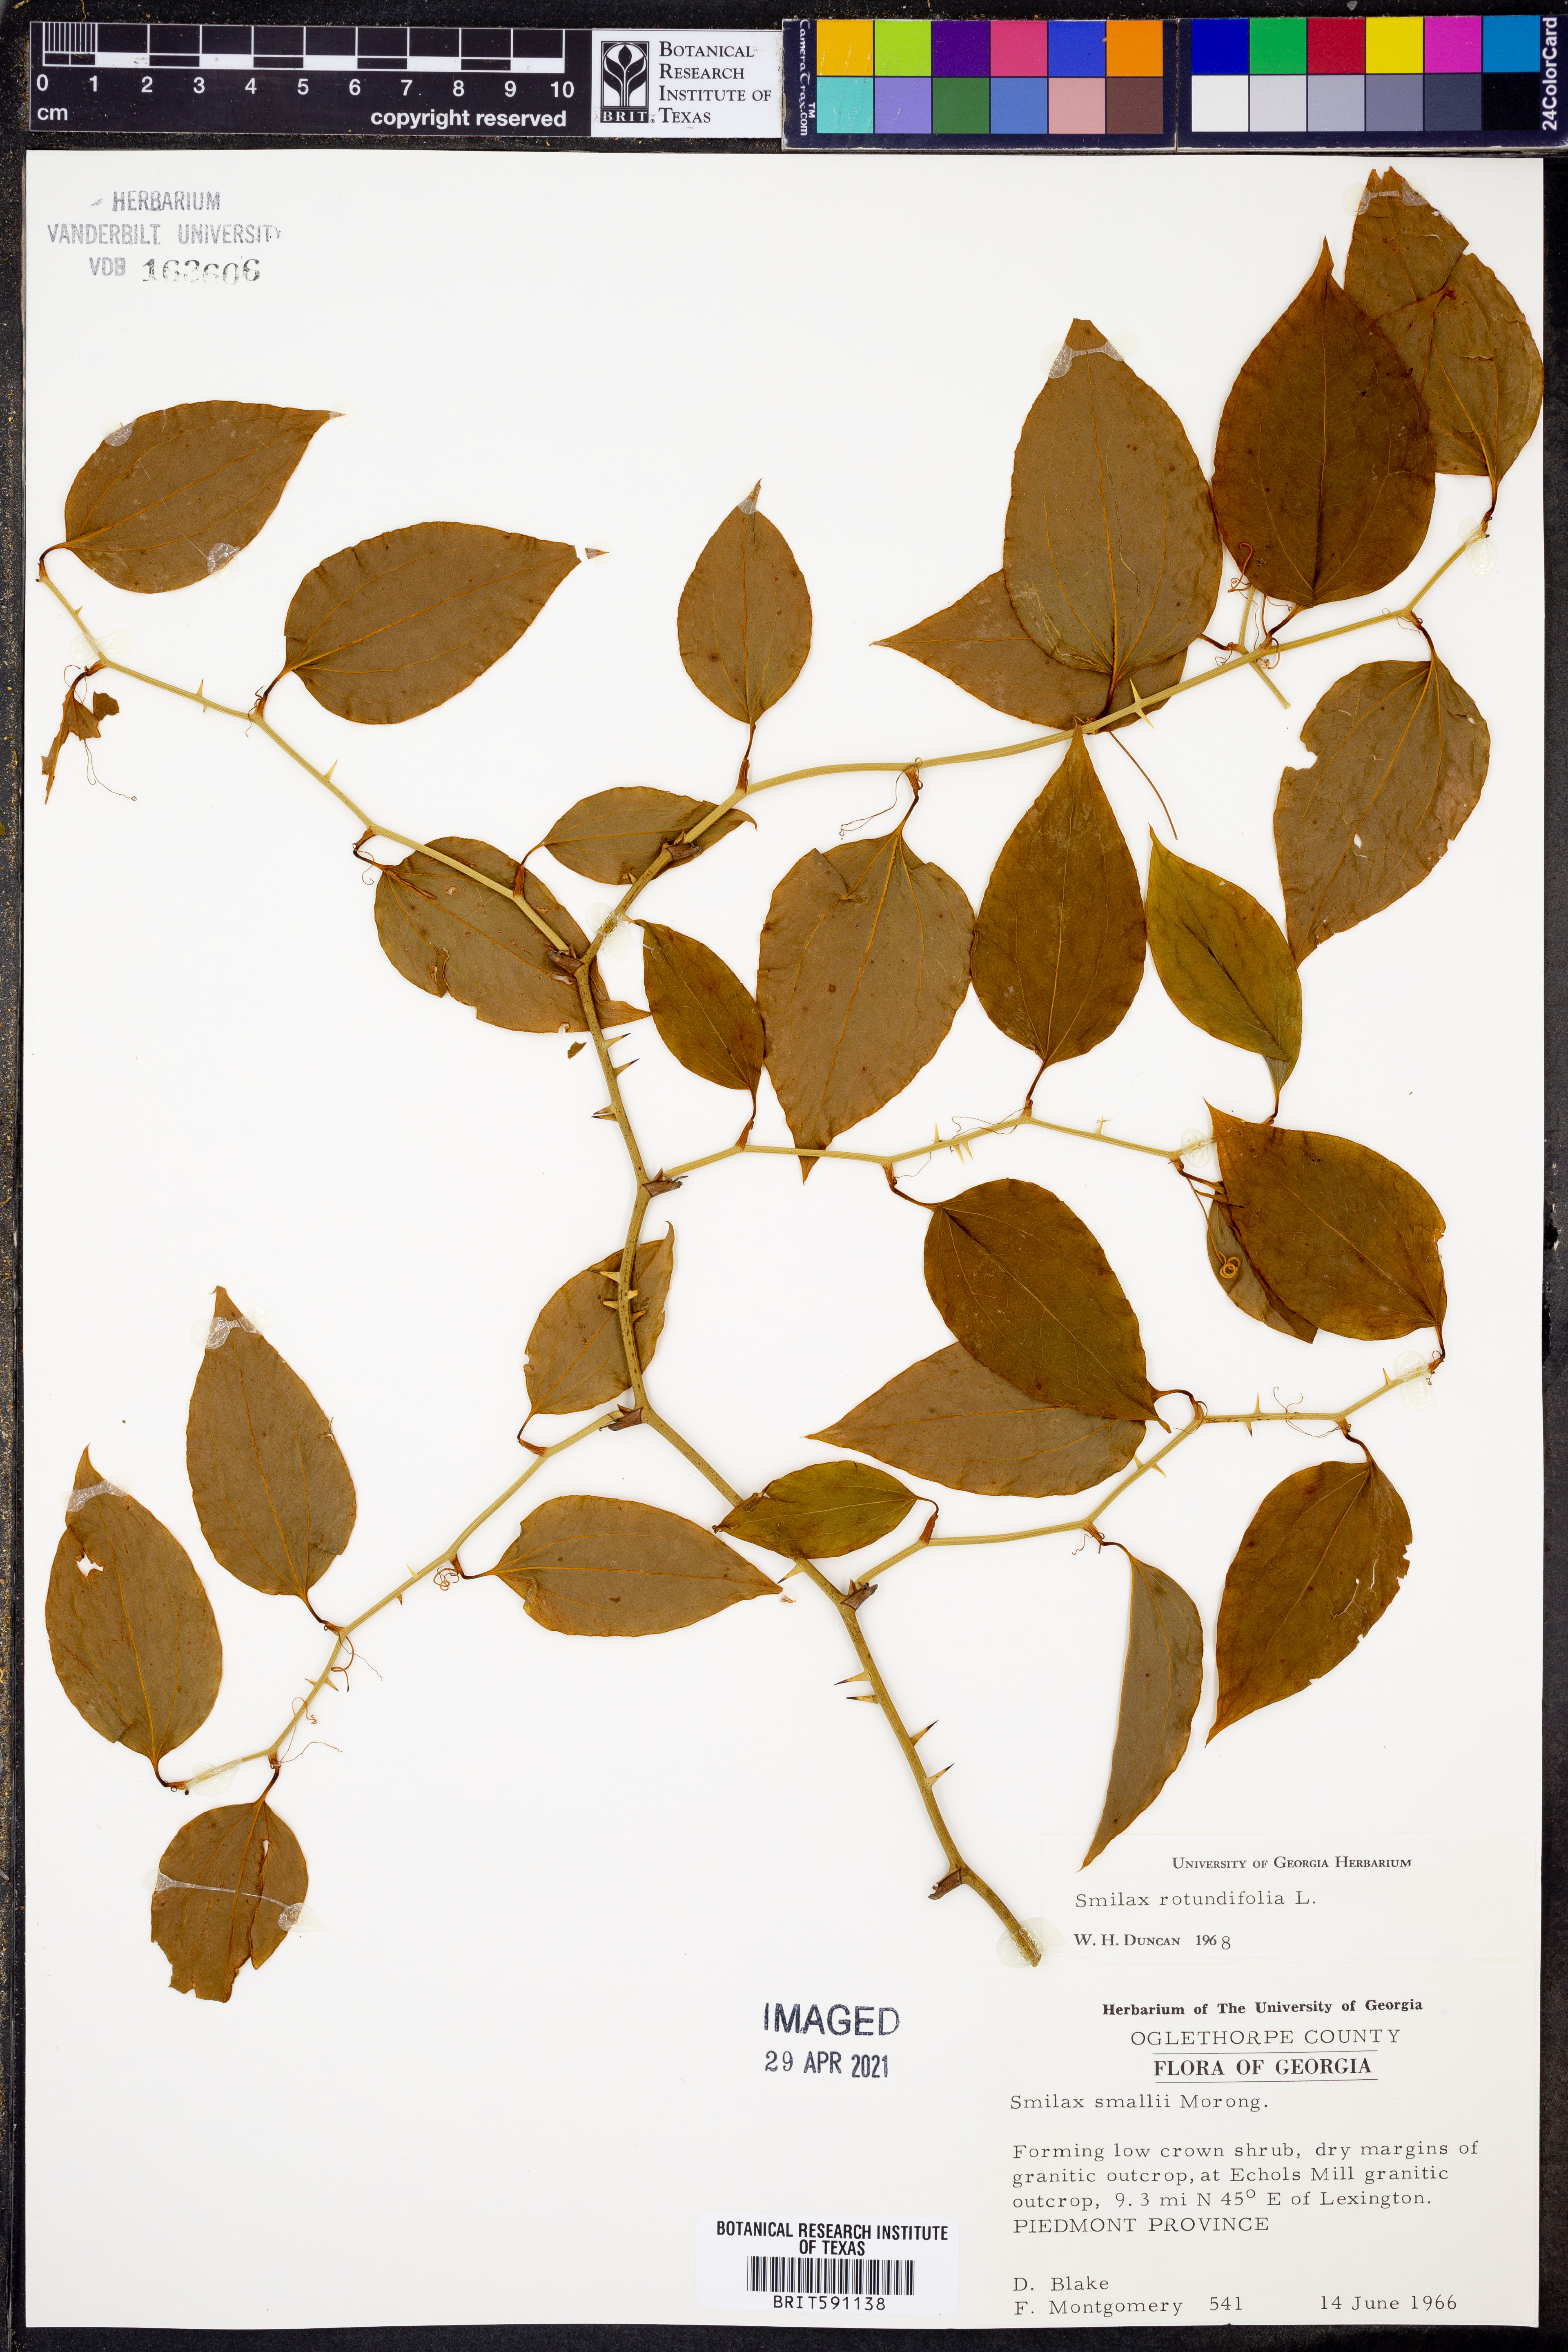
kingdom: Plantae
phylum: Tracheophyta
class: Liliopsida
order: Liliales
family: Smilacaceae
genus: Smilax
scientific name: Smilax rotundifolia
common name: Bullbriar
